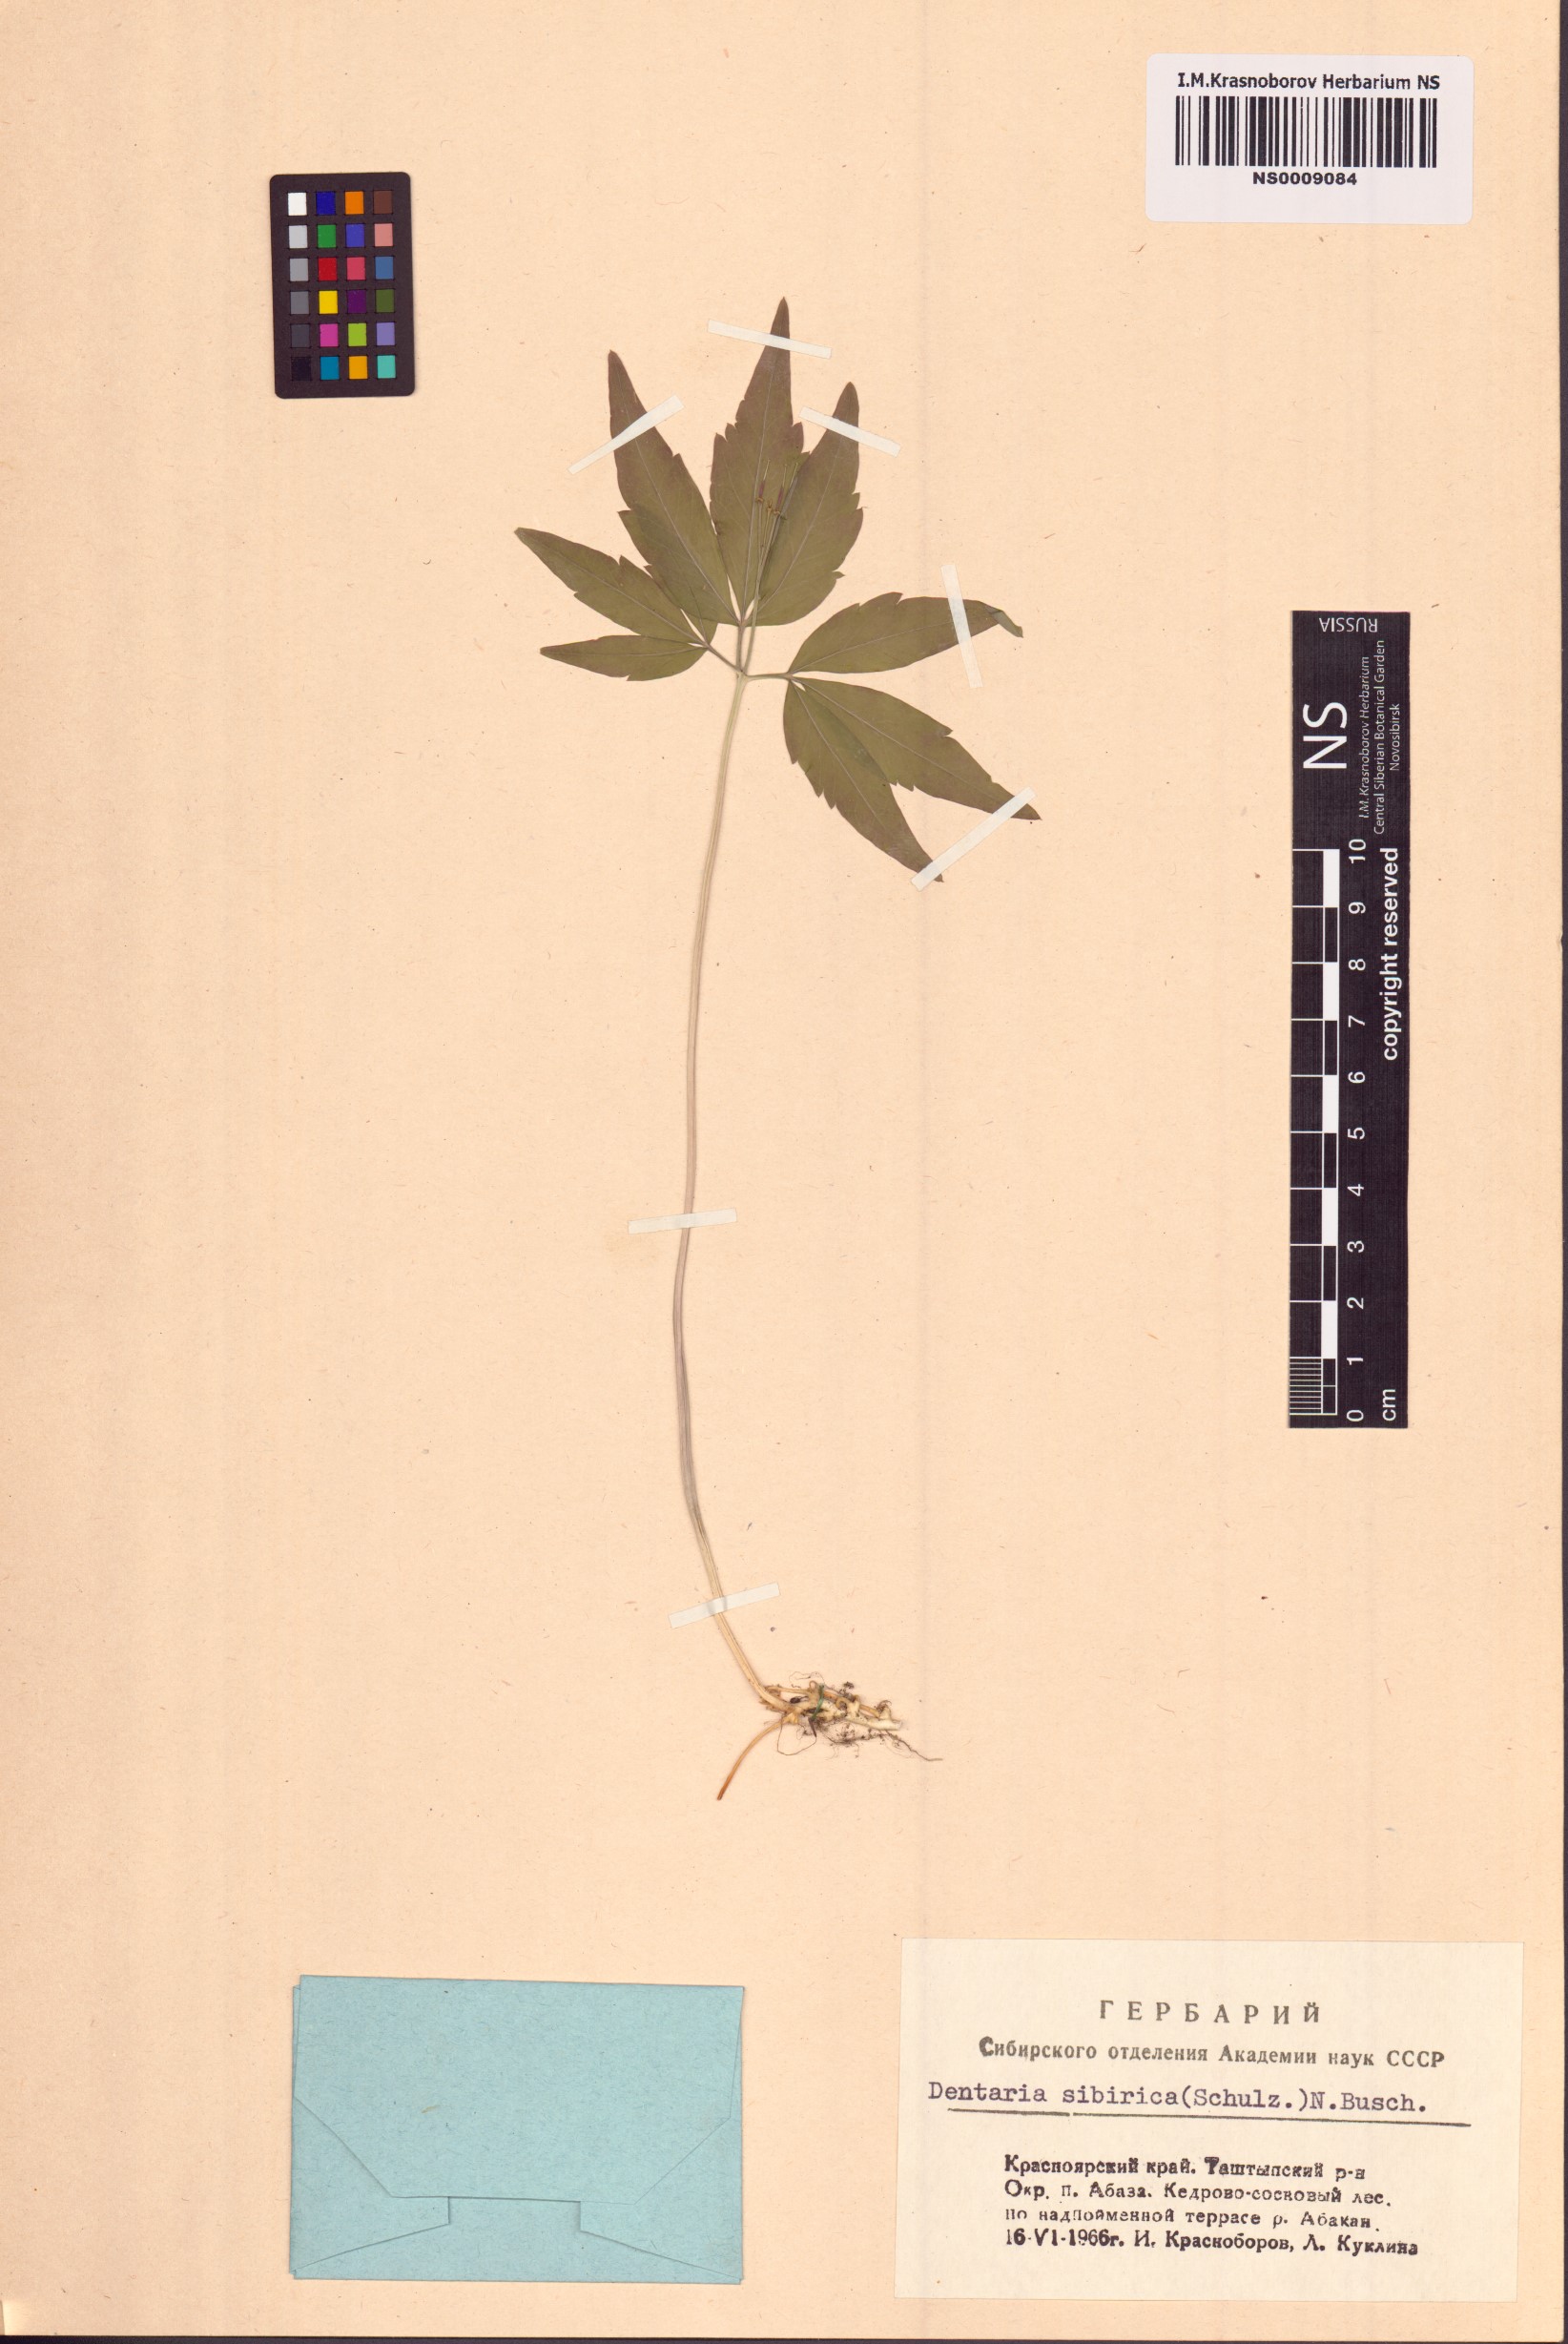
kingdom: Plantae
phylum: Tracheophyta
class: Magnoliopsida
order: Brassicales
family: Brassicaceae
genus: Cardamine
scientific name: Cardamine glanduligera
